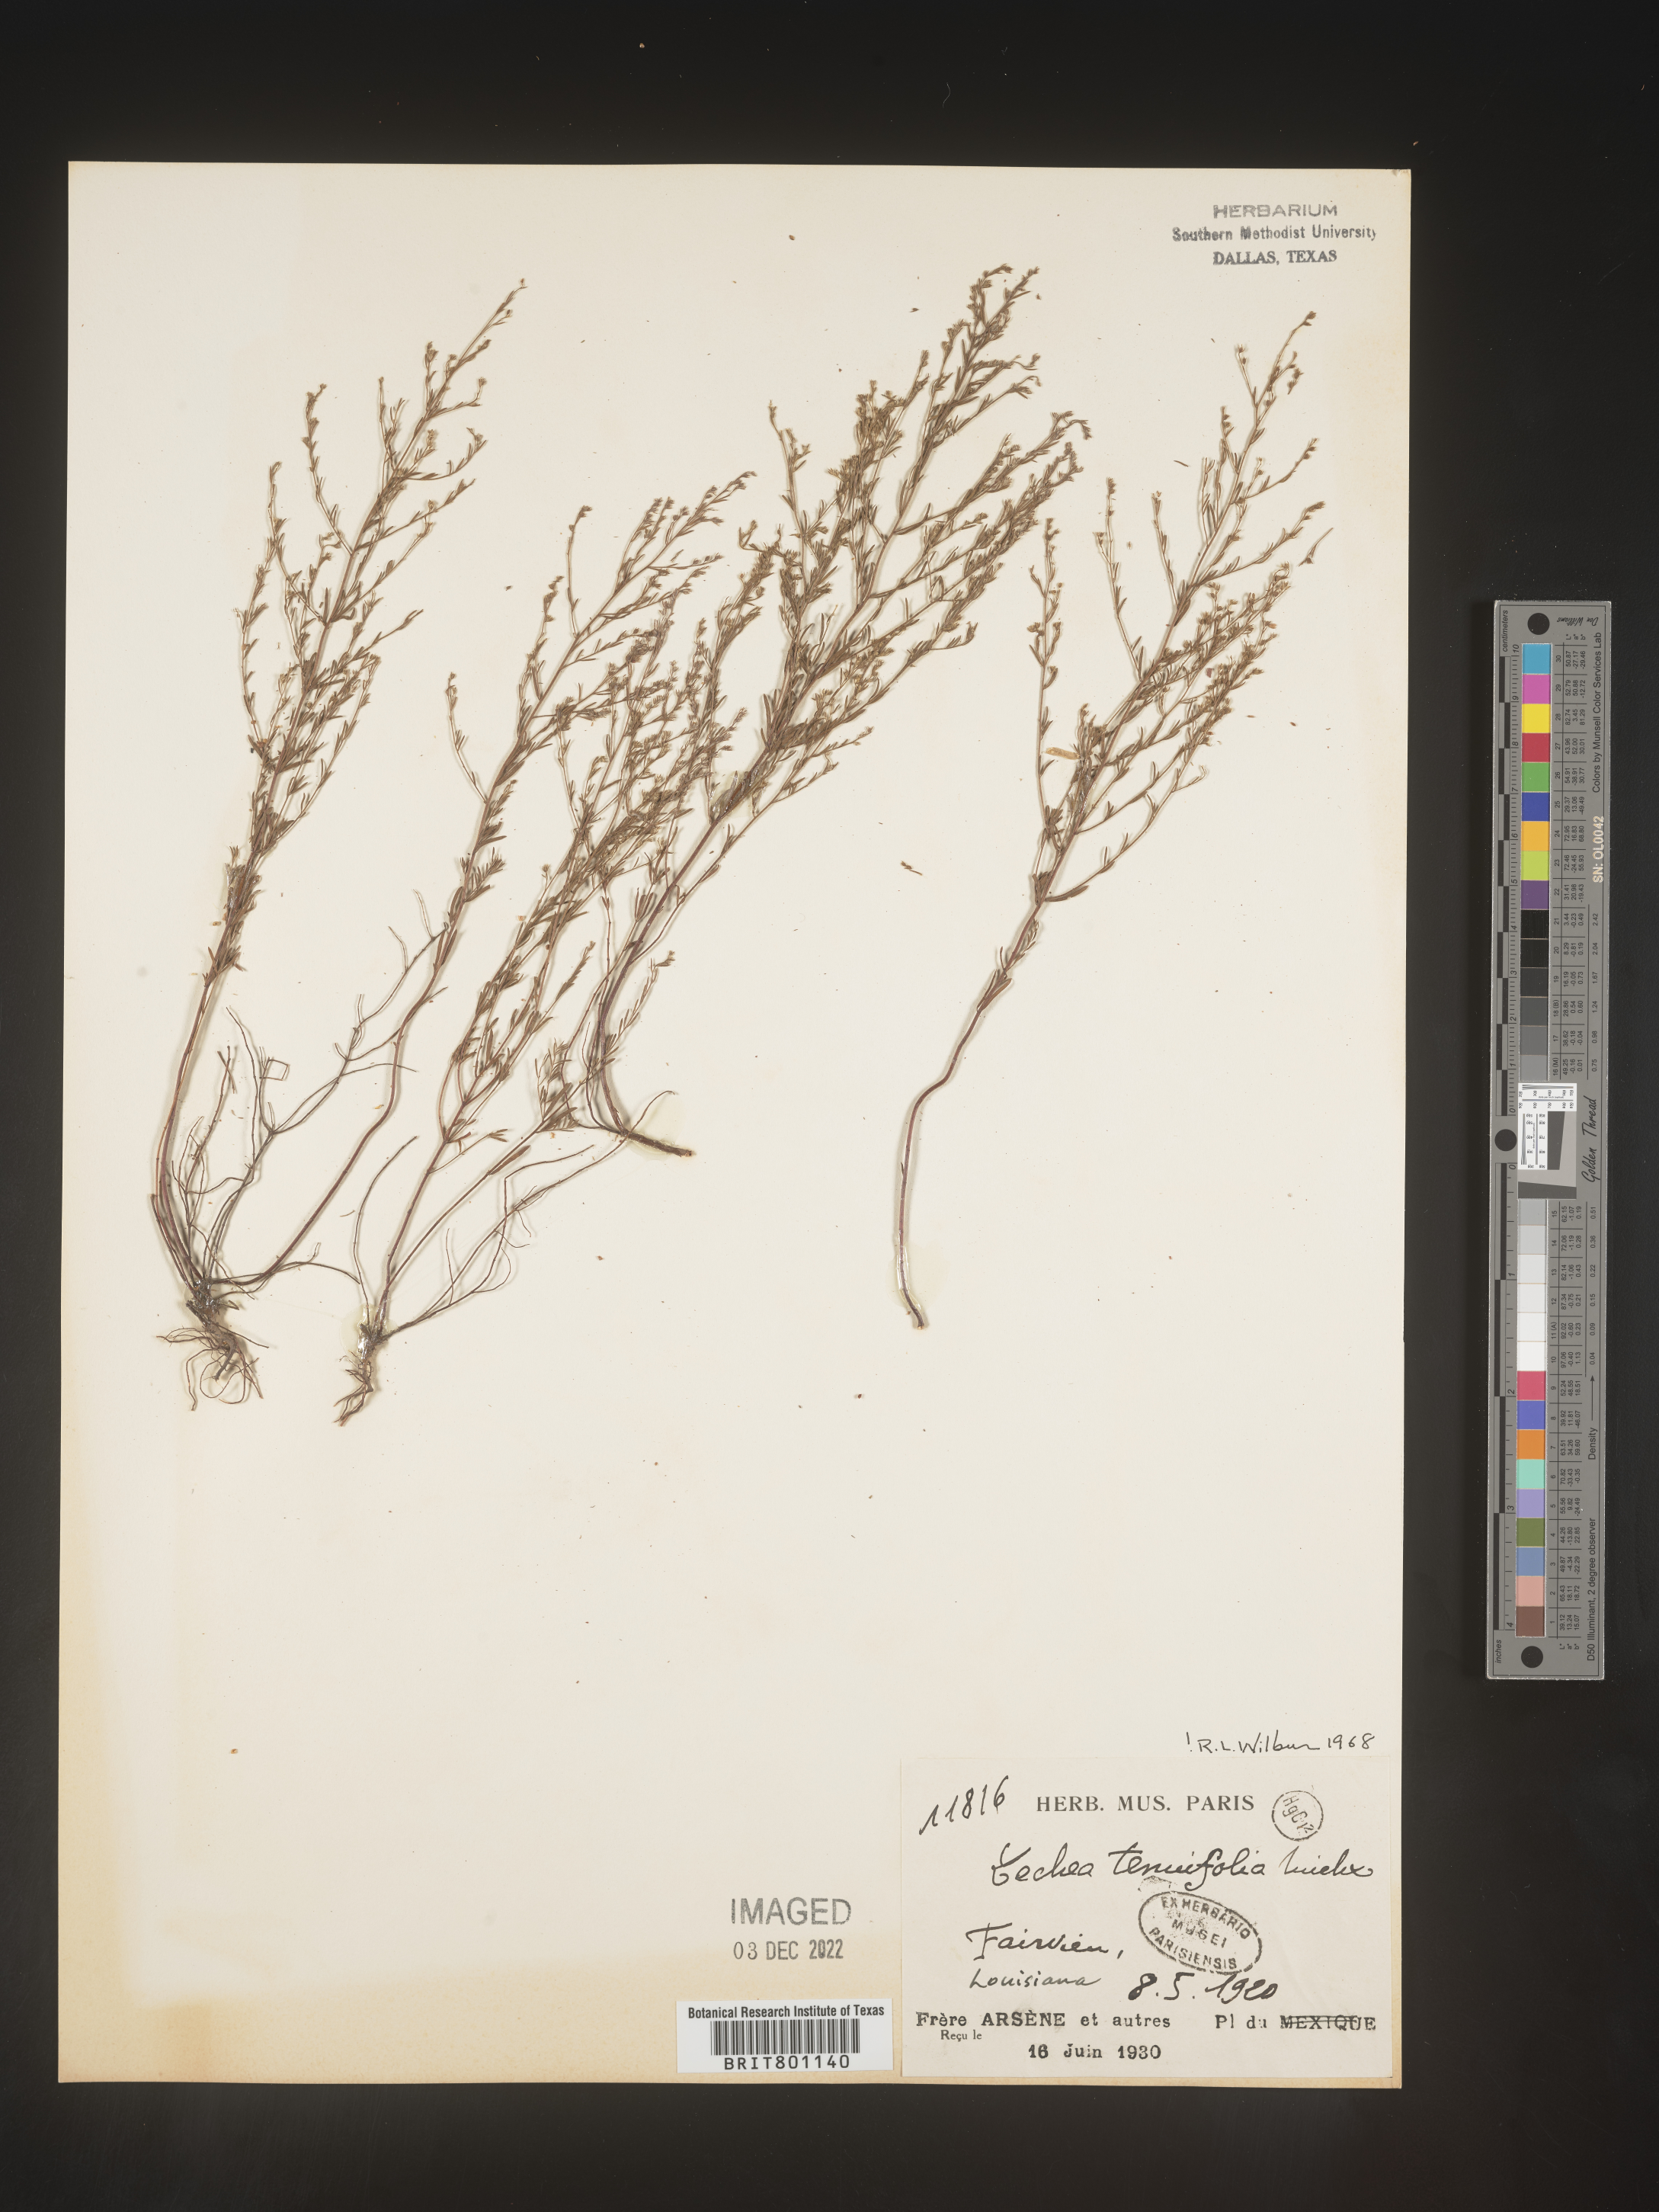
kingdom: Plantae
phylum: Tracheophyta
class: Magnoliopsida
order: Malvales
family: Cistaceae
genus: Lechea
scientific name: Lechea tenuifolia
